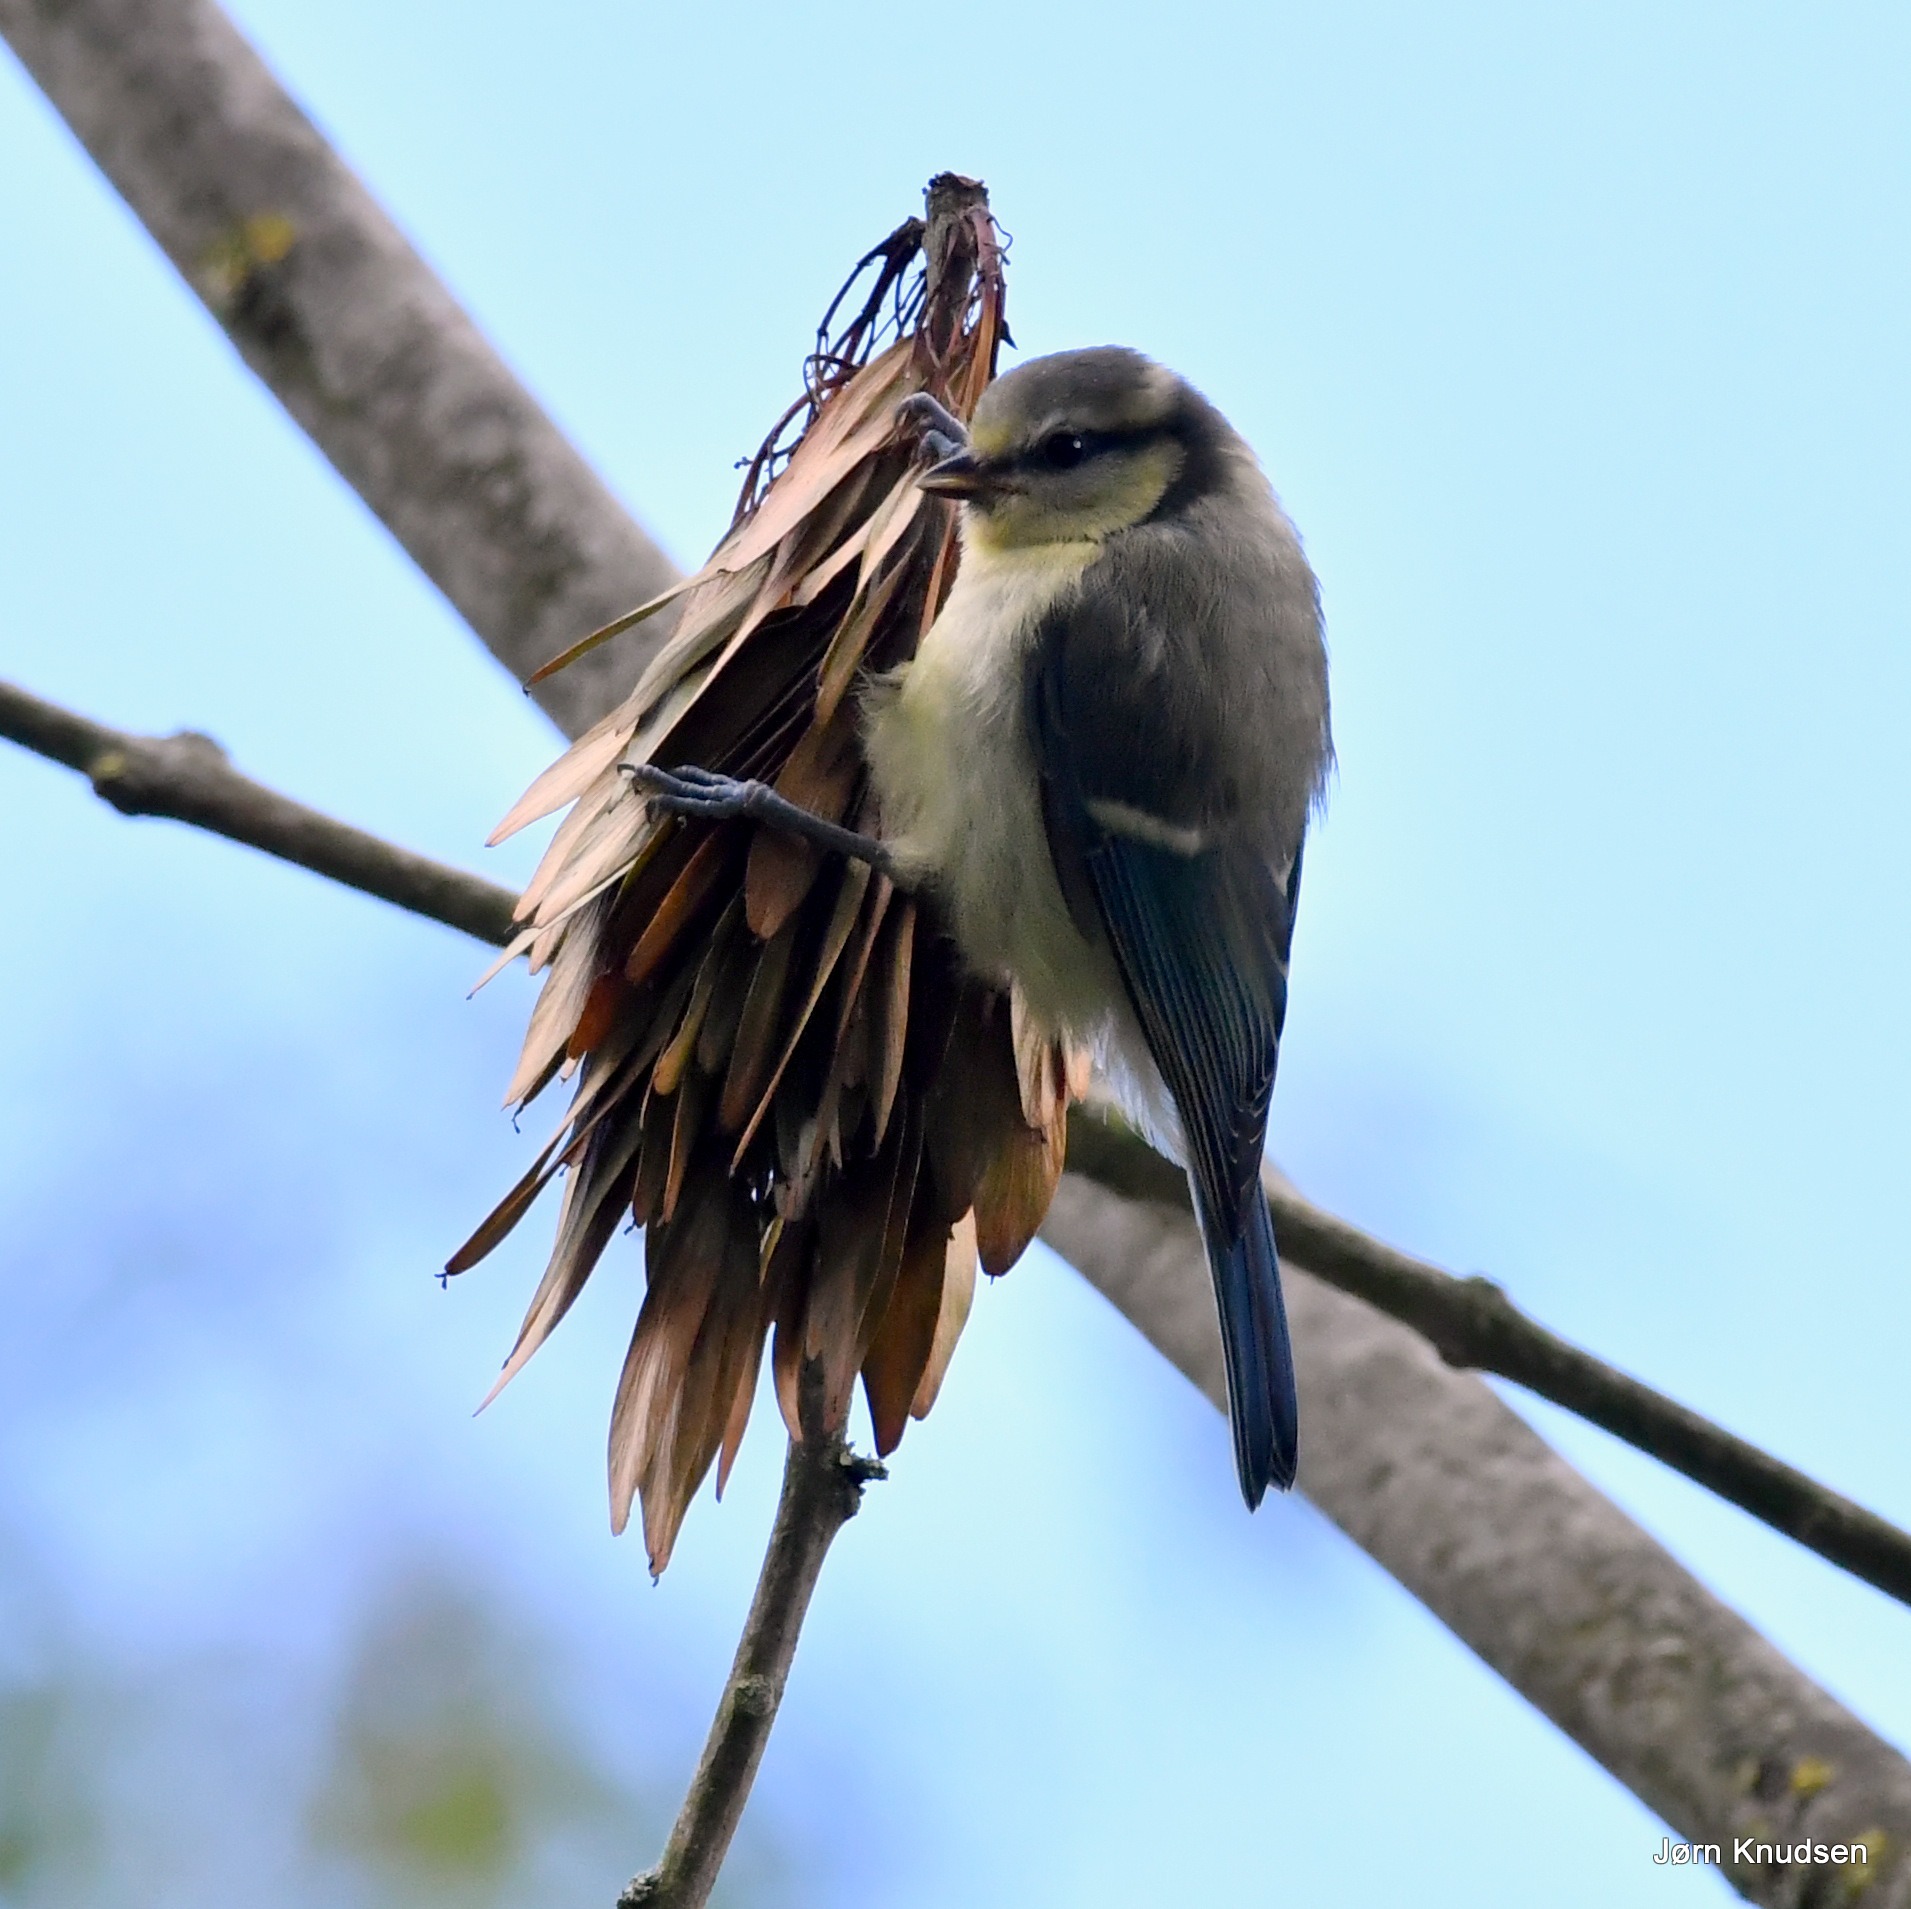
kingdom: Animalia
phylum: Chordata
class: Aves
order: Passeriformes
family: Paridae
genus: Cyanistes
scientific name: Cyanistes caeruleus
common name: Blåmejse
